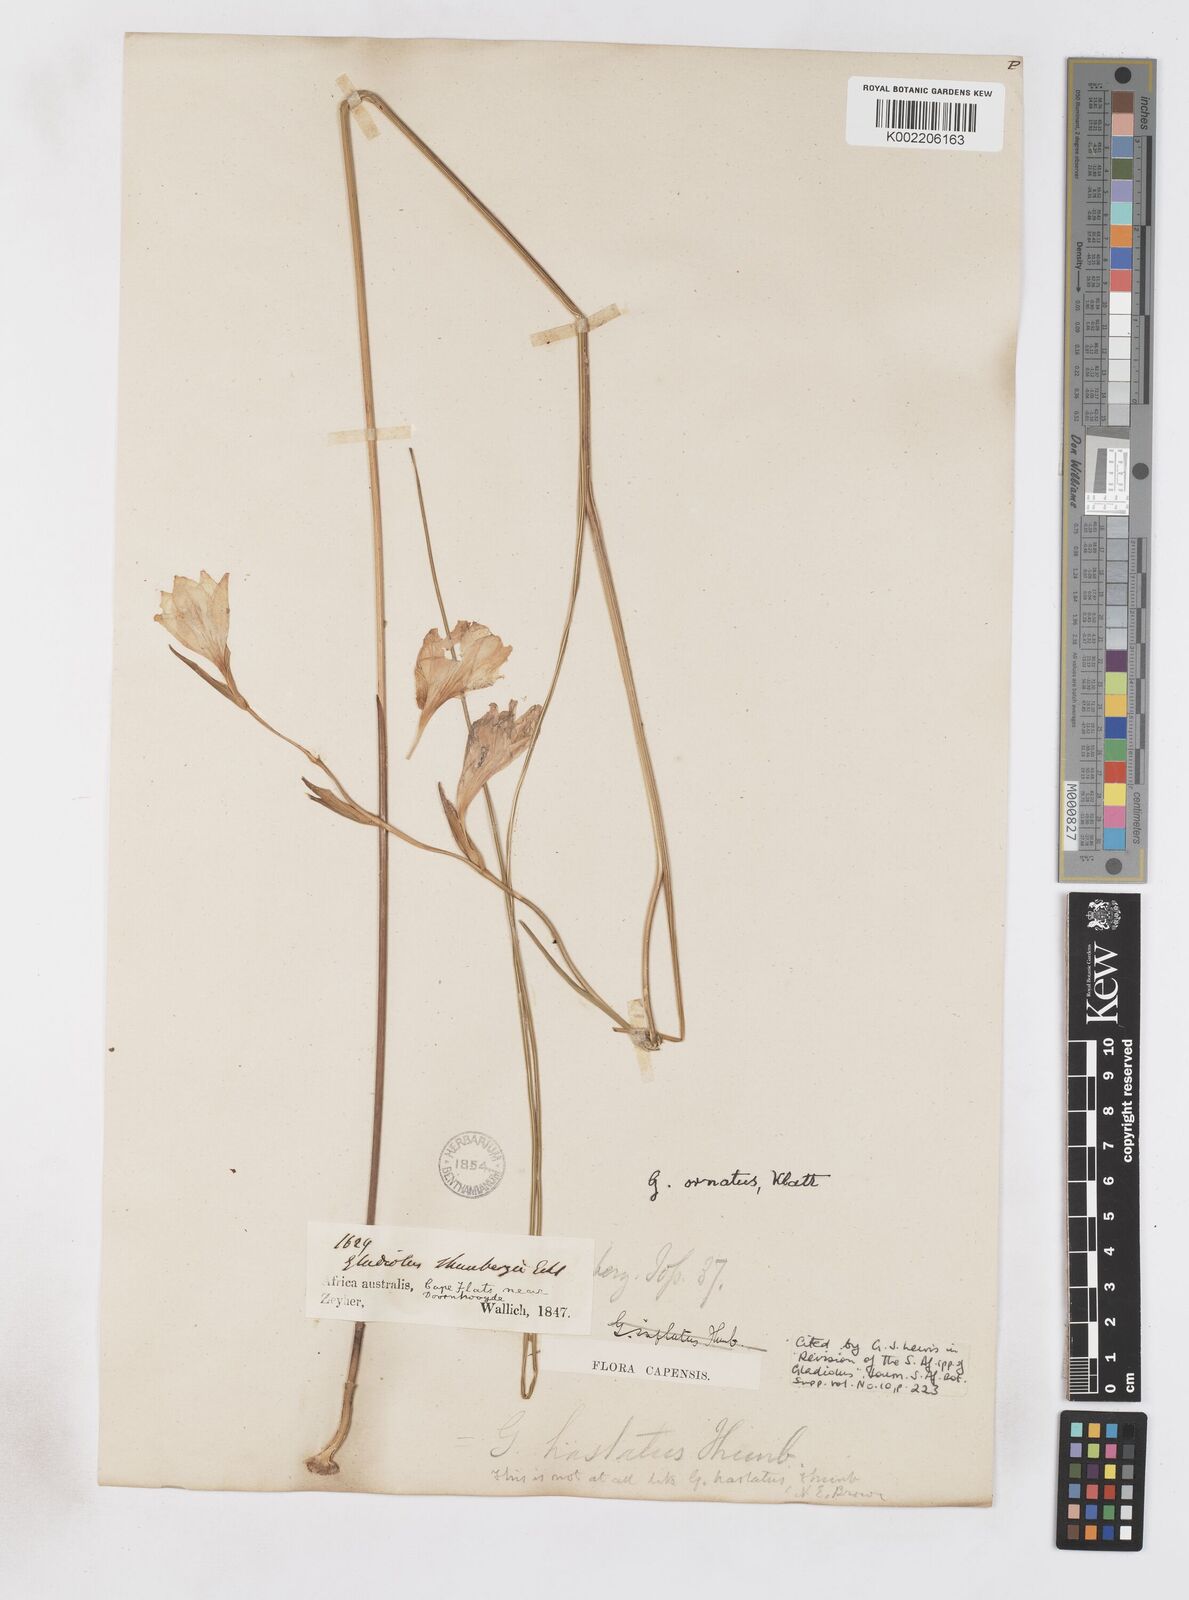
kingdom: Plantae
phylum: Tracheophyta
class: Liliopsida
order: Asparagales
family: Iridaceae
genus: Gladiolus
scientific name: Gladiolus ornatus
